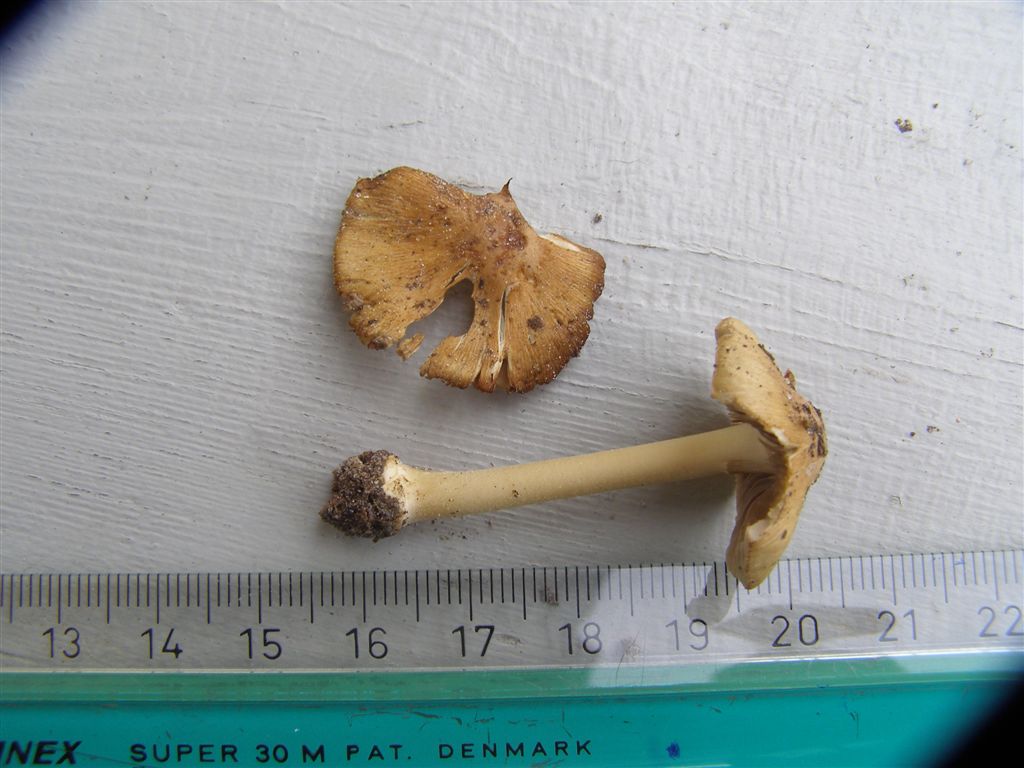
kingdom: Fungi
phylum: Basidiomycota
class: Agaricomycetes
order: Agaricales
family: Inocybaceae
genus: Inocybe
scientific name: Inocybe mixtilis
